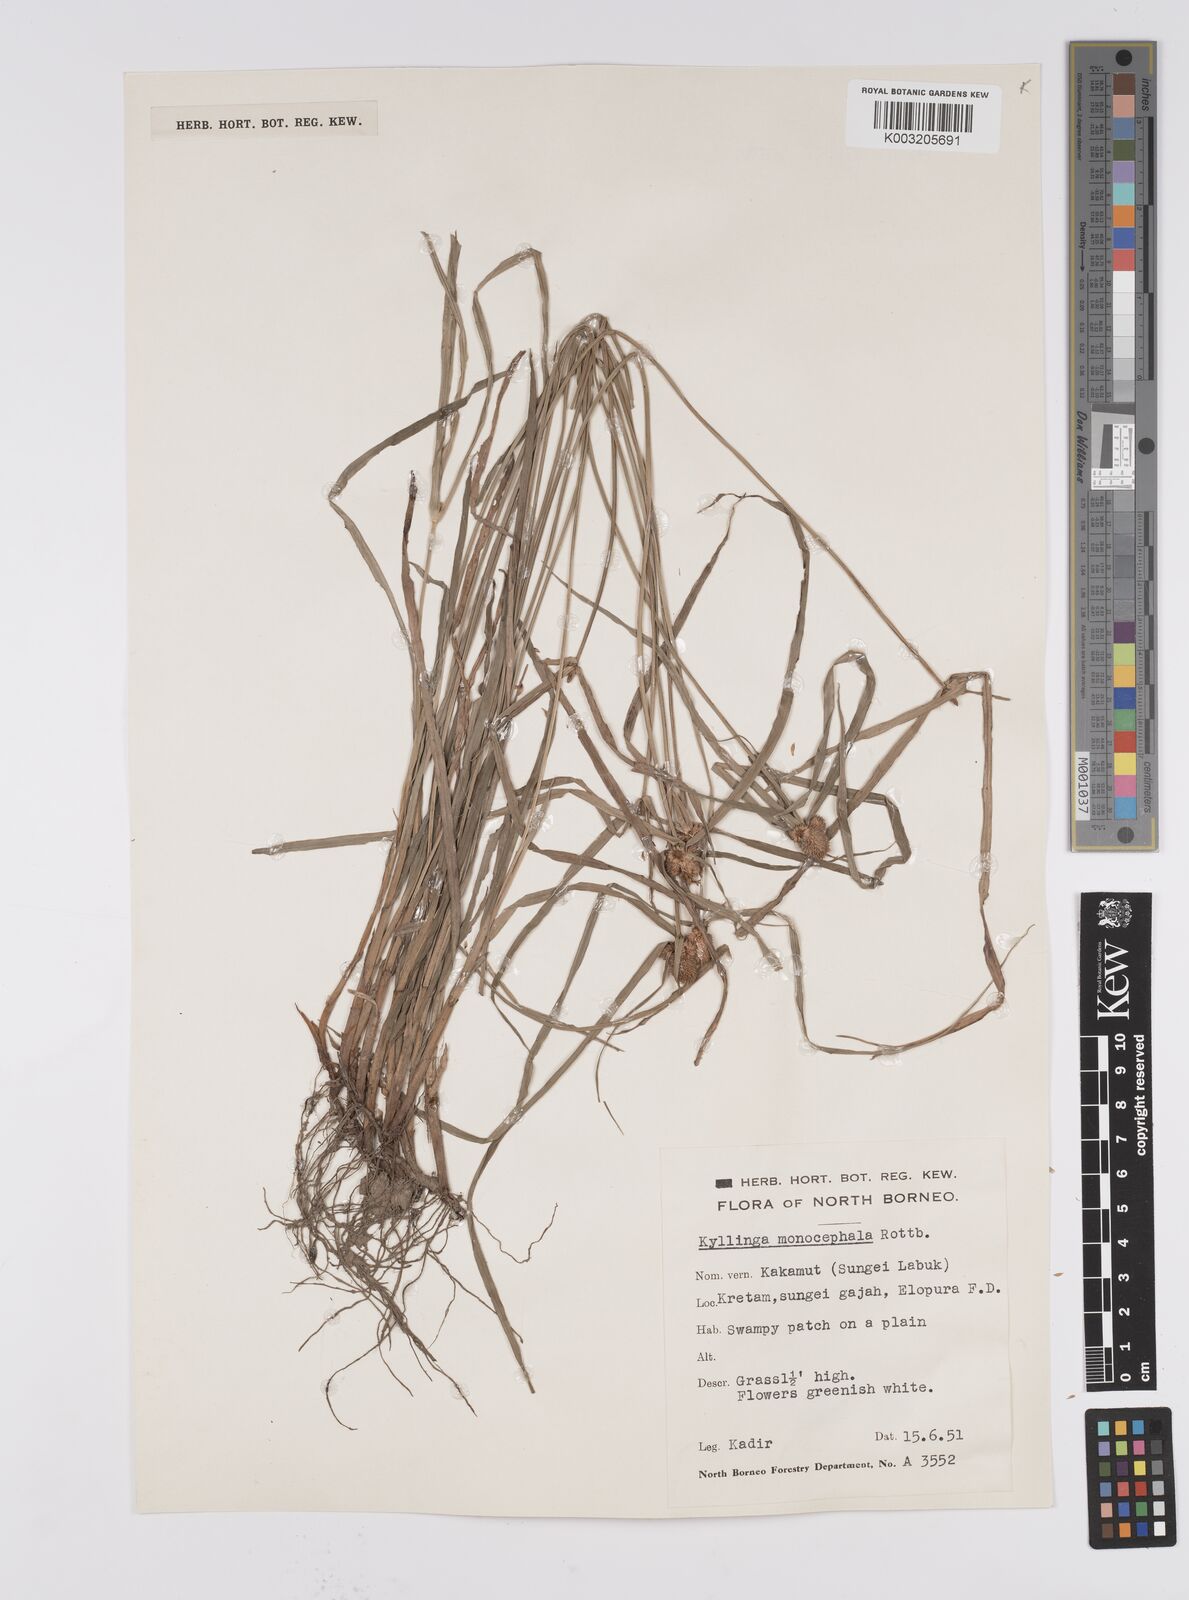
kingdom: Plantae
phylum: Tracheophyta
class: Liliopsida
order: Poales
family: Cyperaceae
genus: Cyperus
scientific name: Cyperus nemoralis
